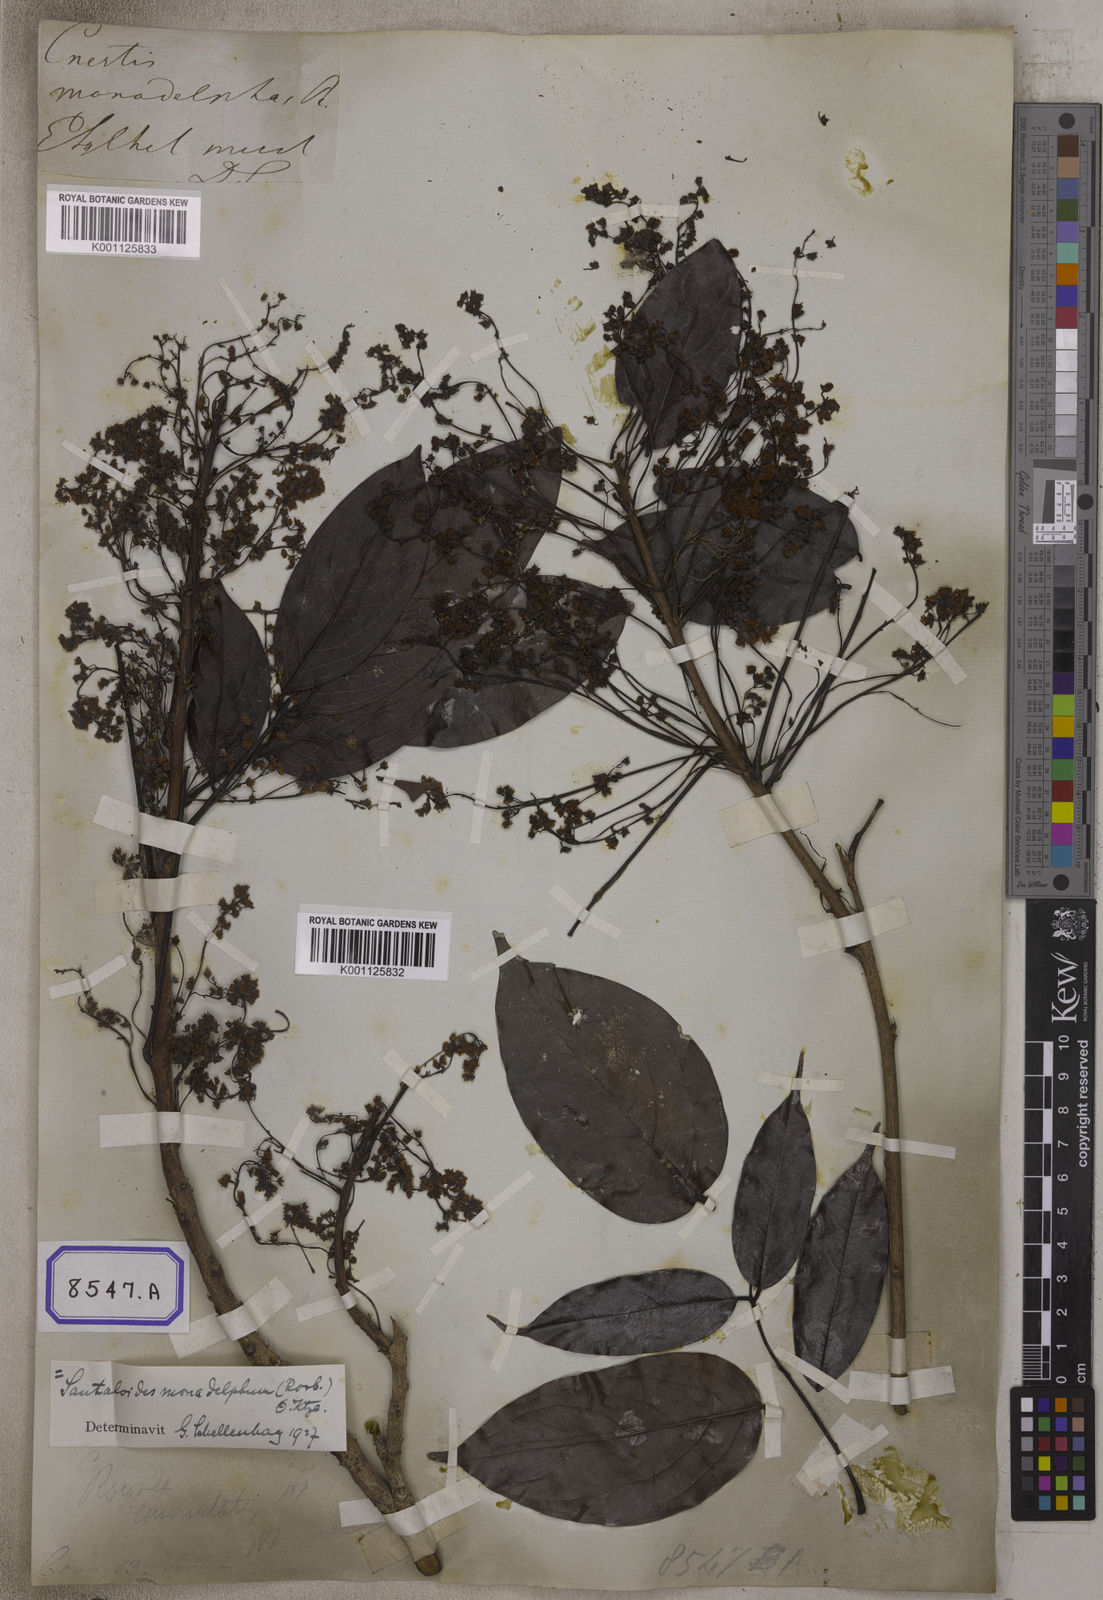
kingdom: Plantae
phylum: Tracheophyta
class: Magnoliopsida
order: Oxalidales
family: Connaraceae
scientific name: Connaraceae
